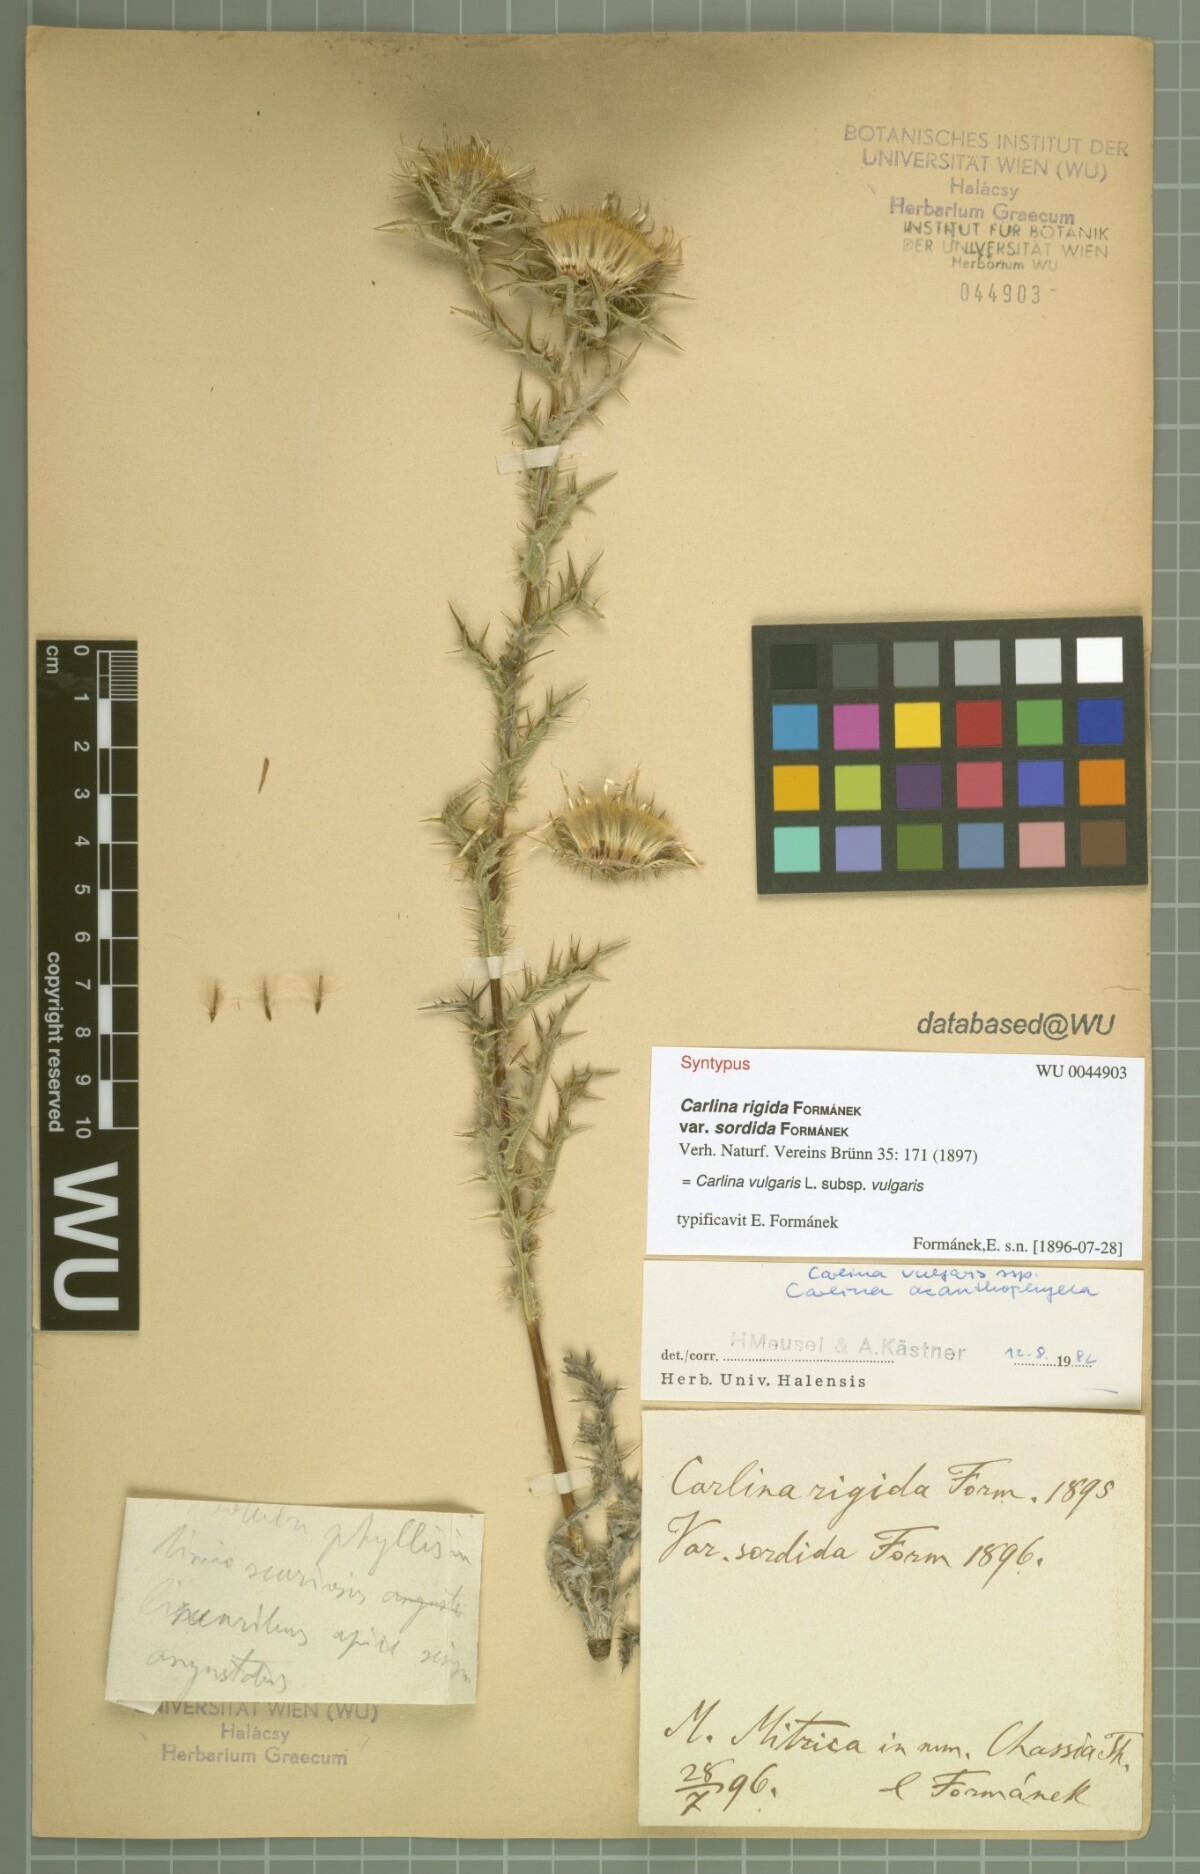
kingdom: Plantae
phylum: Tracheophyta
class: Magnoliopsida
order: Asterales
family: Asteraceae
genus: Carlina
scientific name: Carlina vulgaris
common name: Carline thistle
